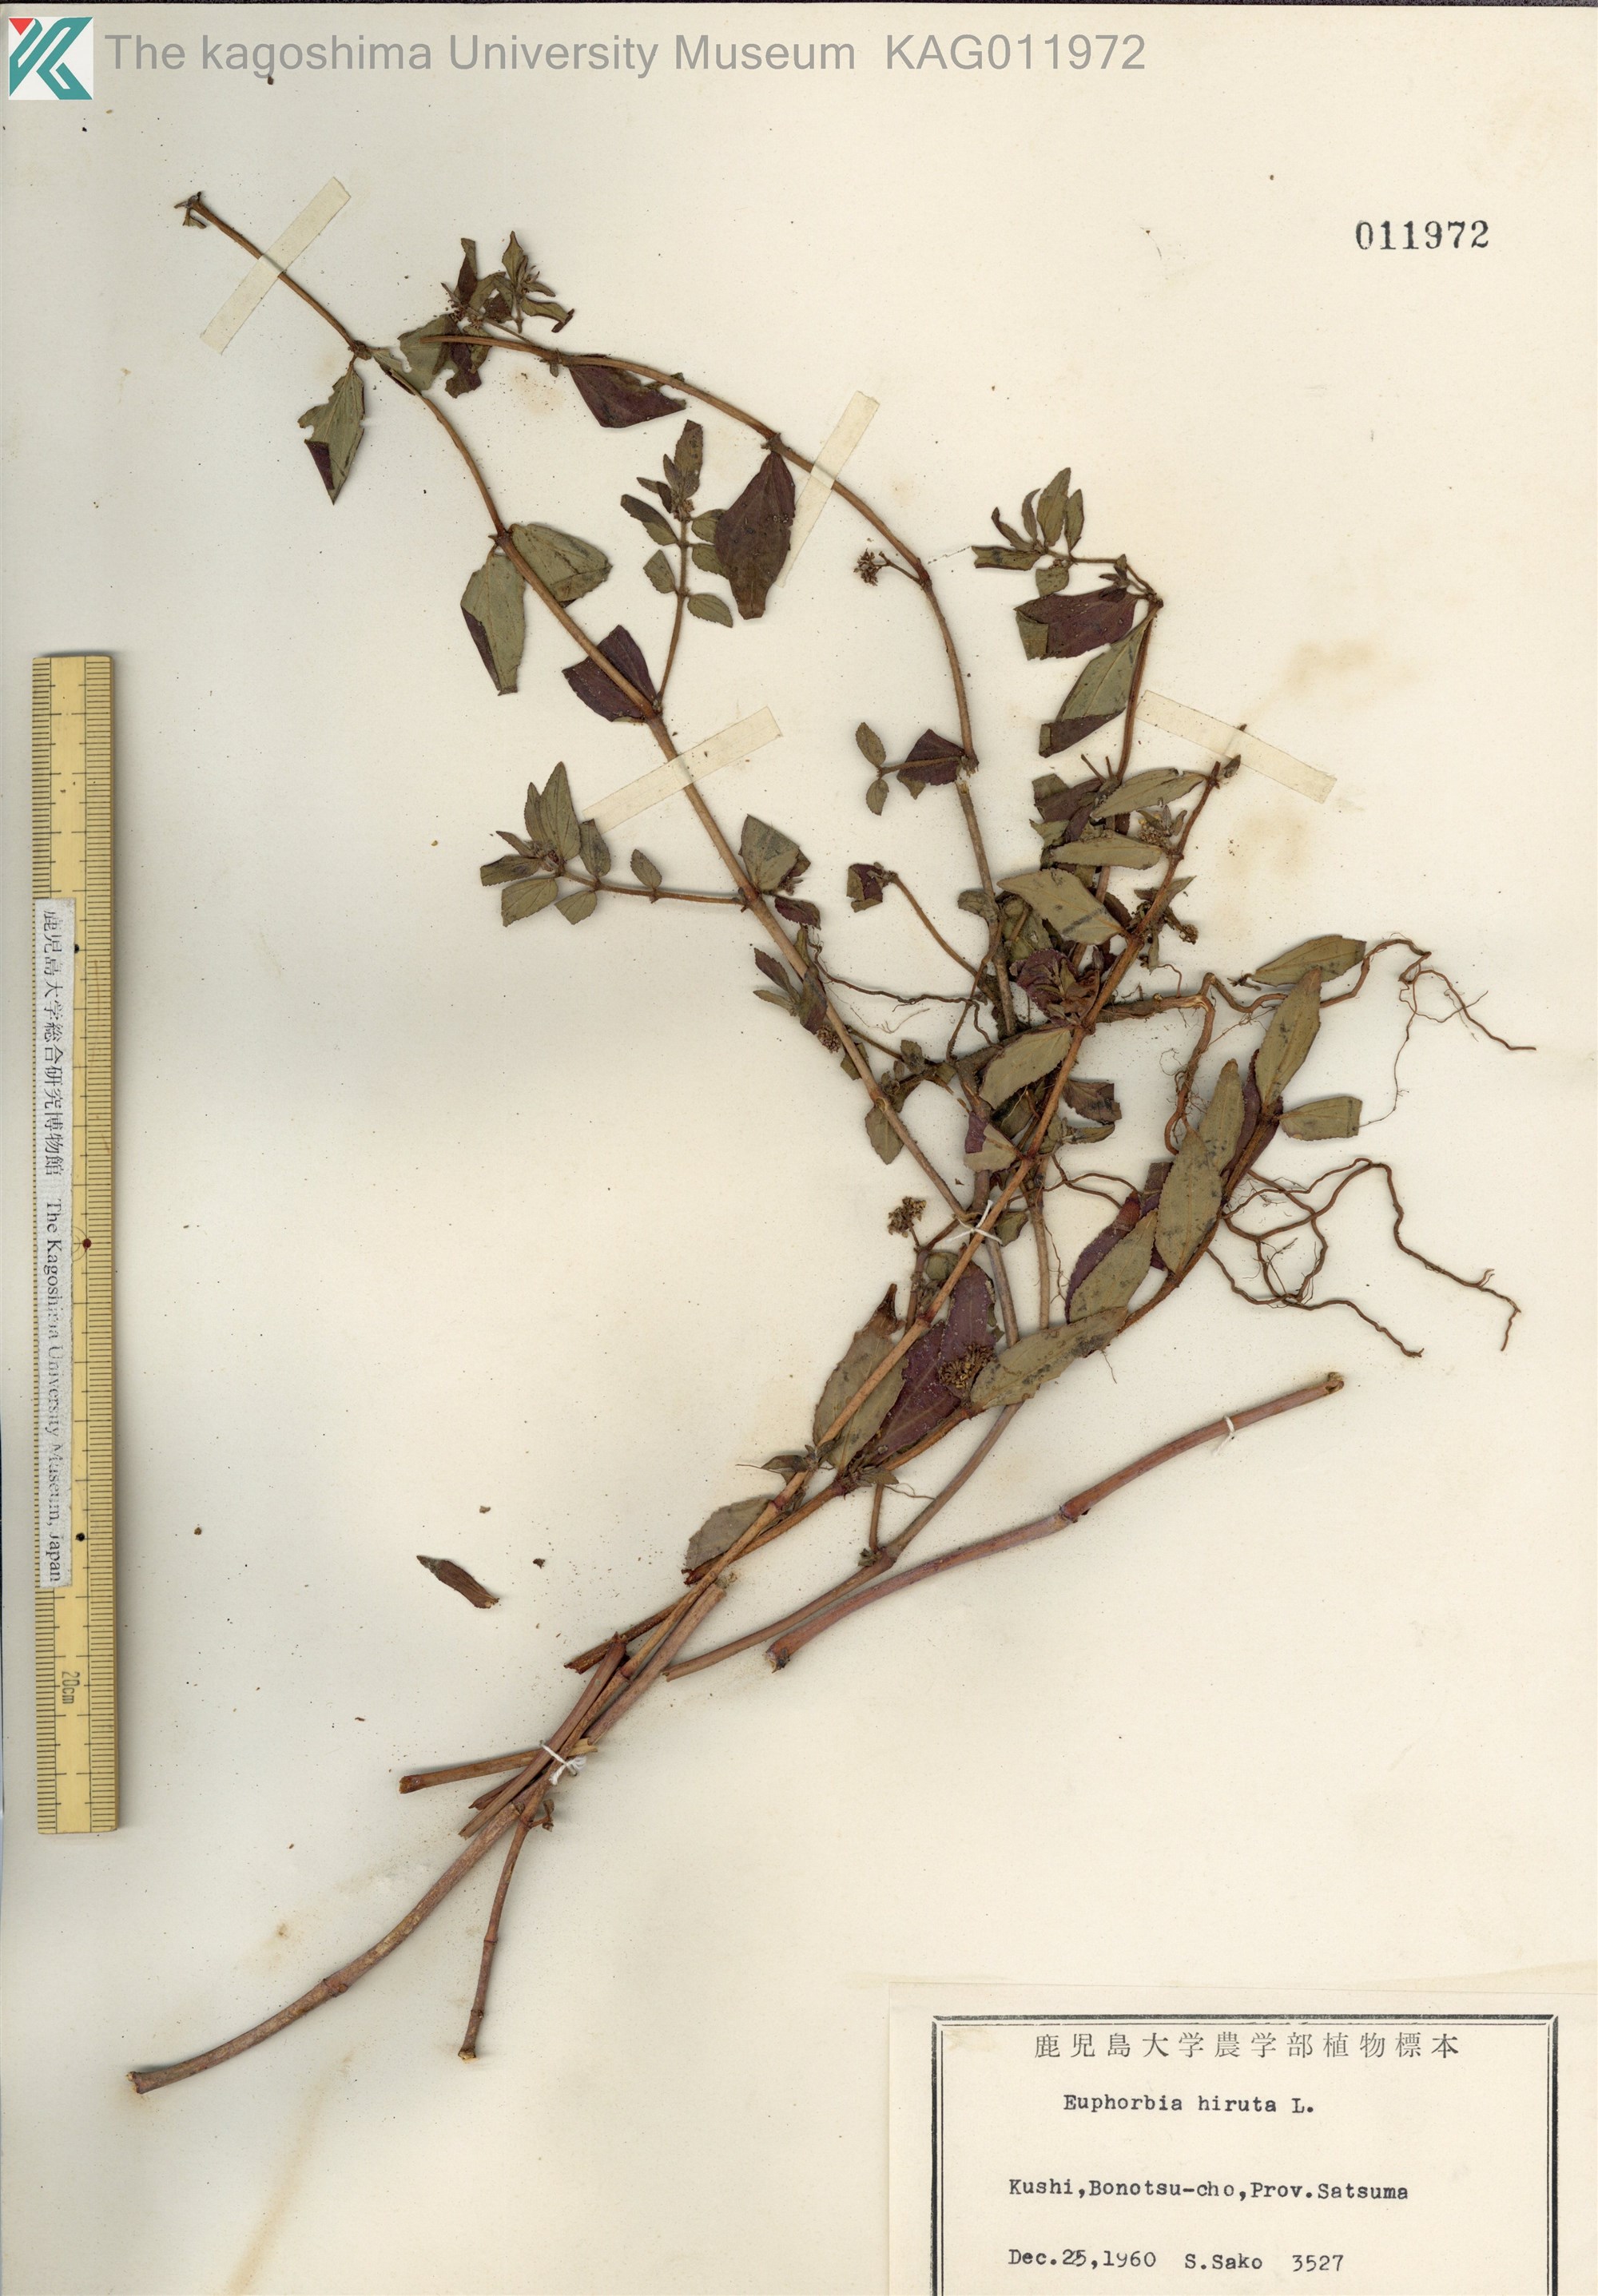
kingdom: Plantae
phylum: Tracheophyta
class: Magnoliopsida
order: Malpighiales
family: Euphorbiaceae
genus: Euphorbia
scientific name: Euphorbia hirta
